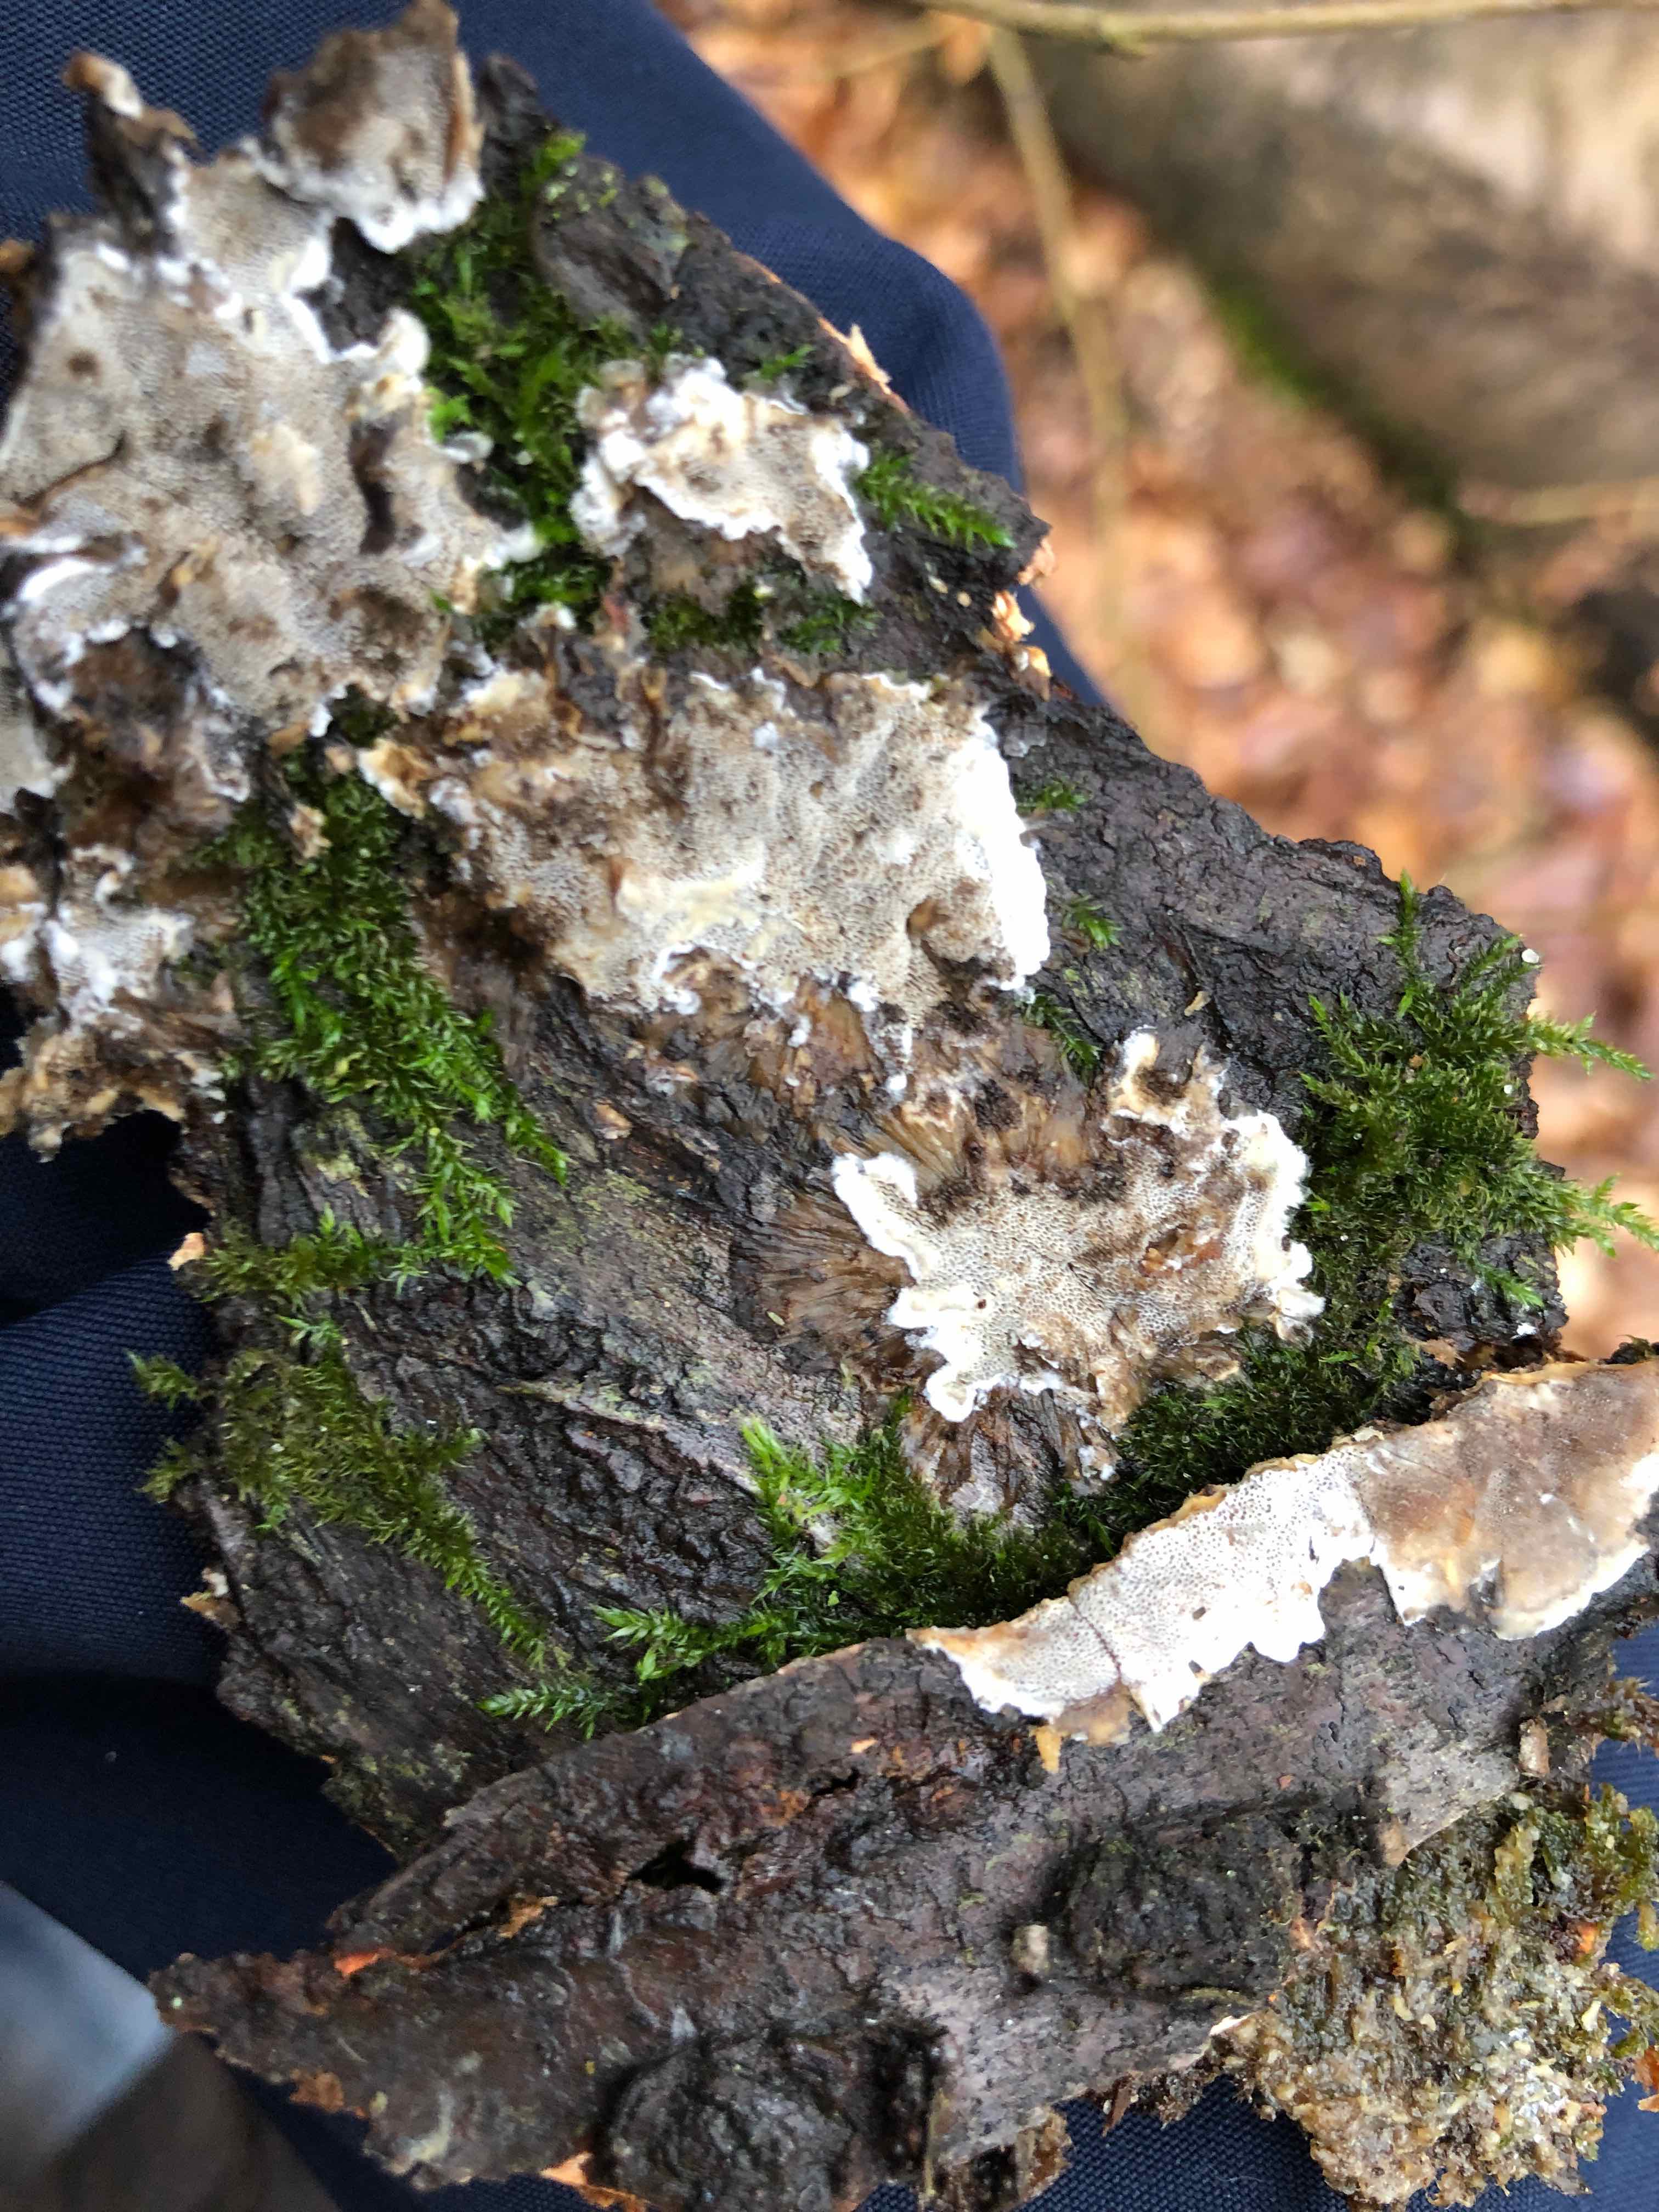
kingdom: Fungi
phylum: Basidiomycota
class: Agaricomycetes
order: Polyporales
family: Phanerochaetaceae
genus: Bjerkandera
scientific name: Bjerkandera adusta
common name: sveden sodporesvamp
